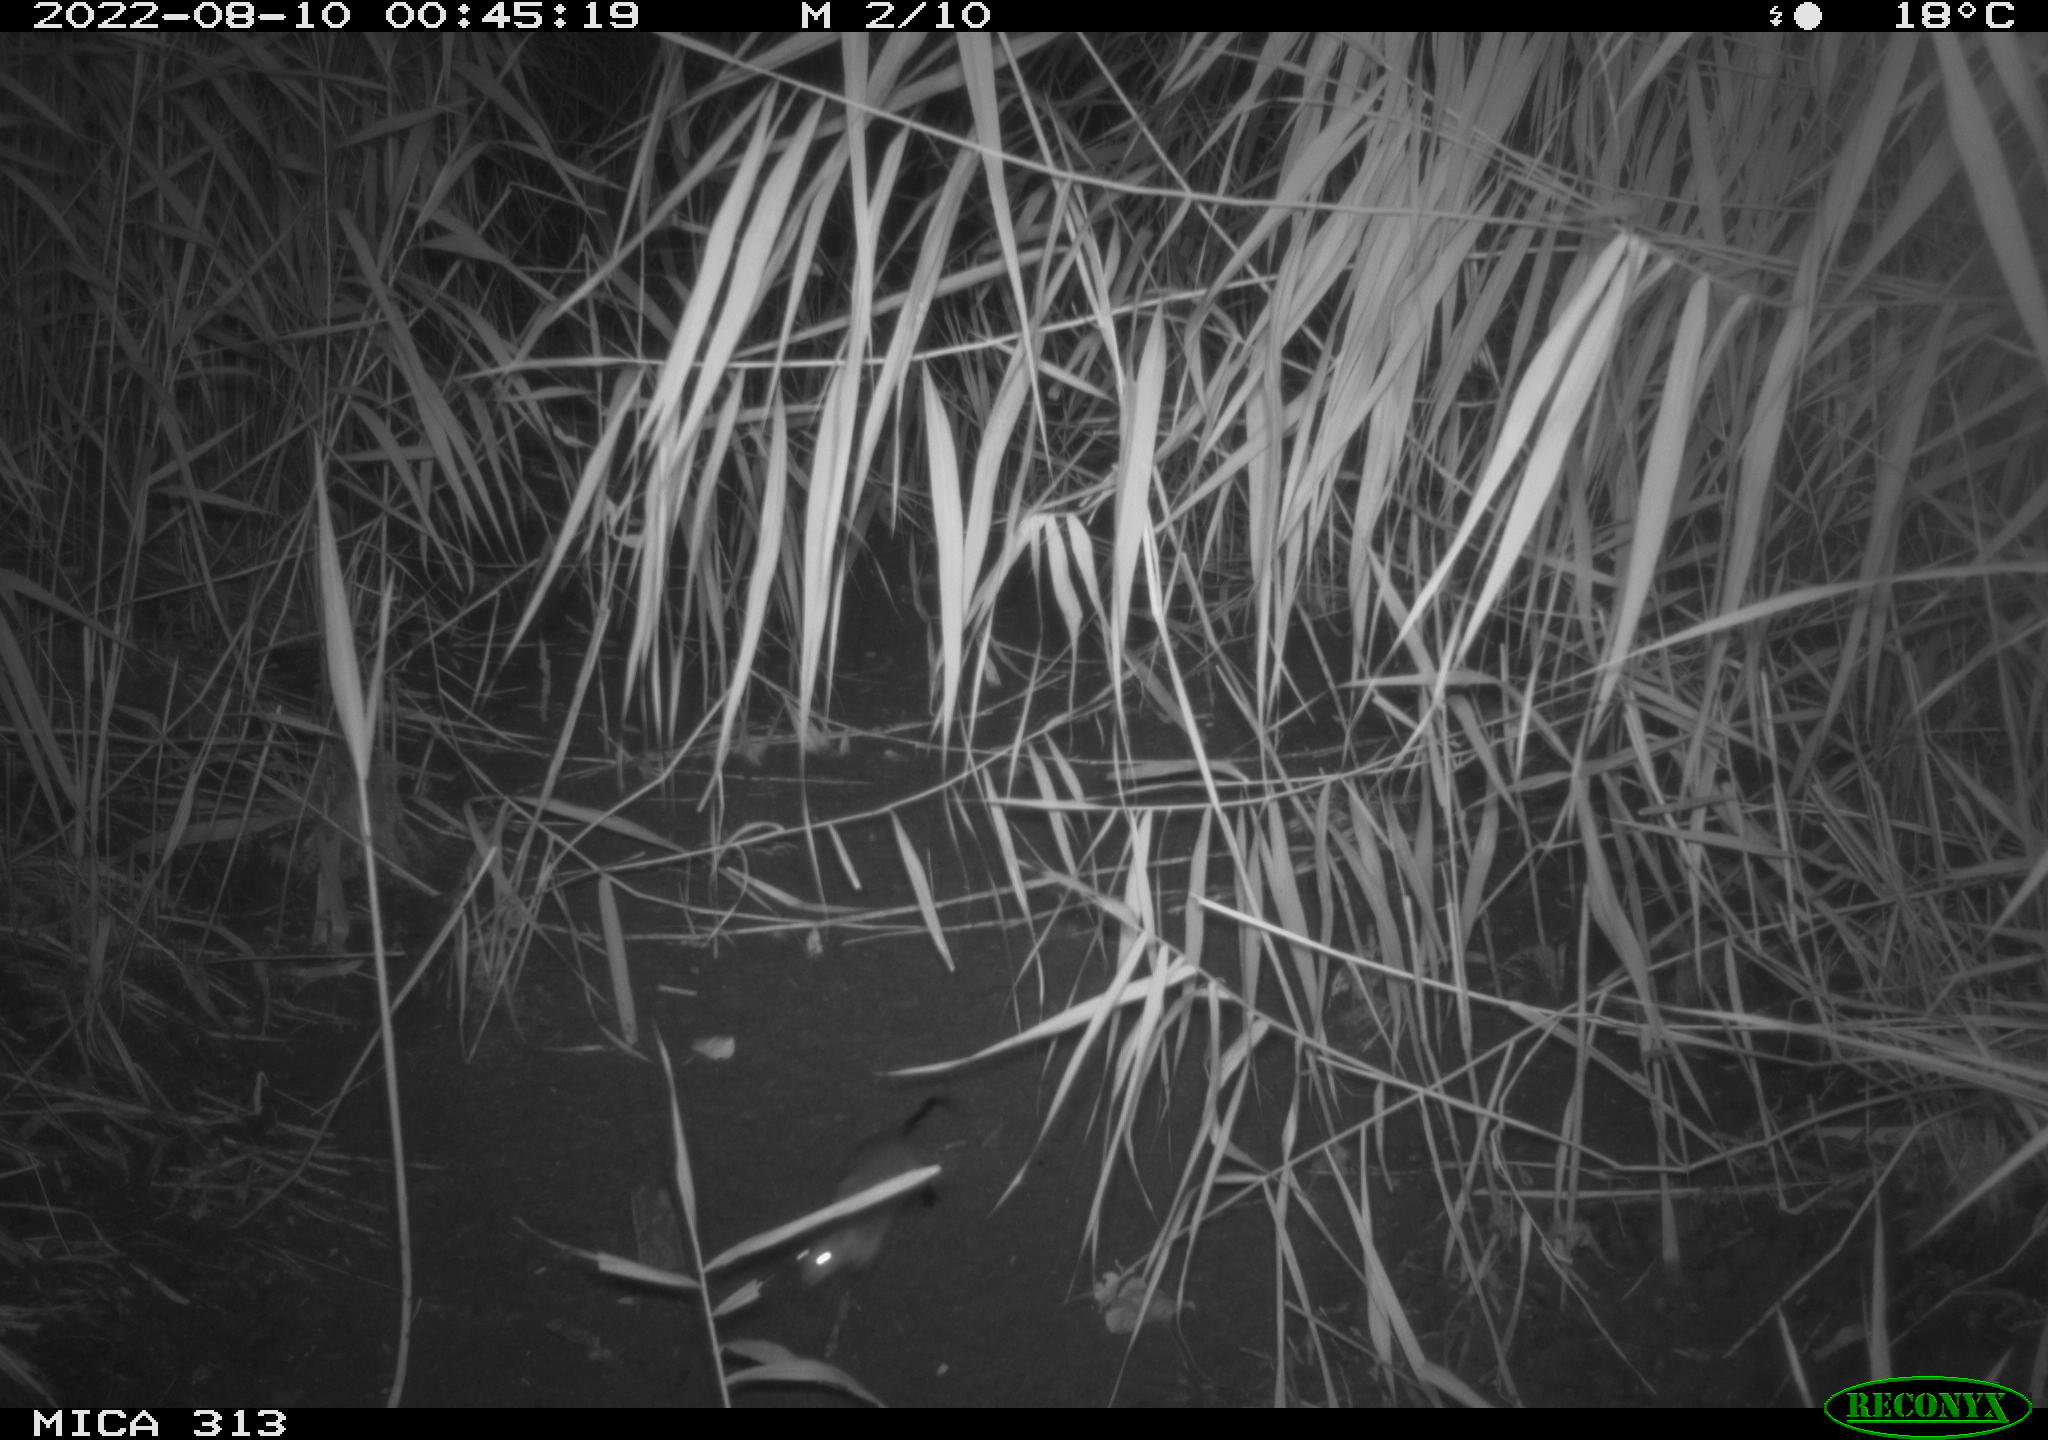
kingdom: Animalia
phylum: Chordata
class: Mammalia
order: Rodentia
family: Muridae
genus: Rattus
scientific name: Rattus norvegicus
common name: Brown rat
